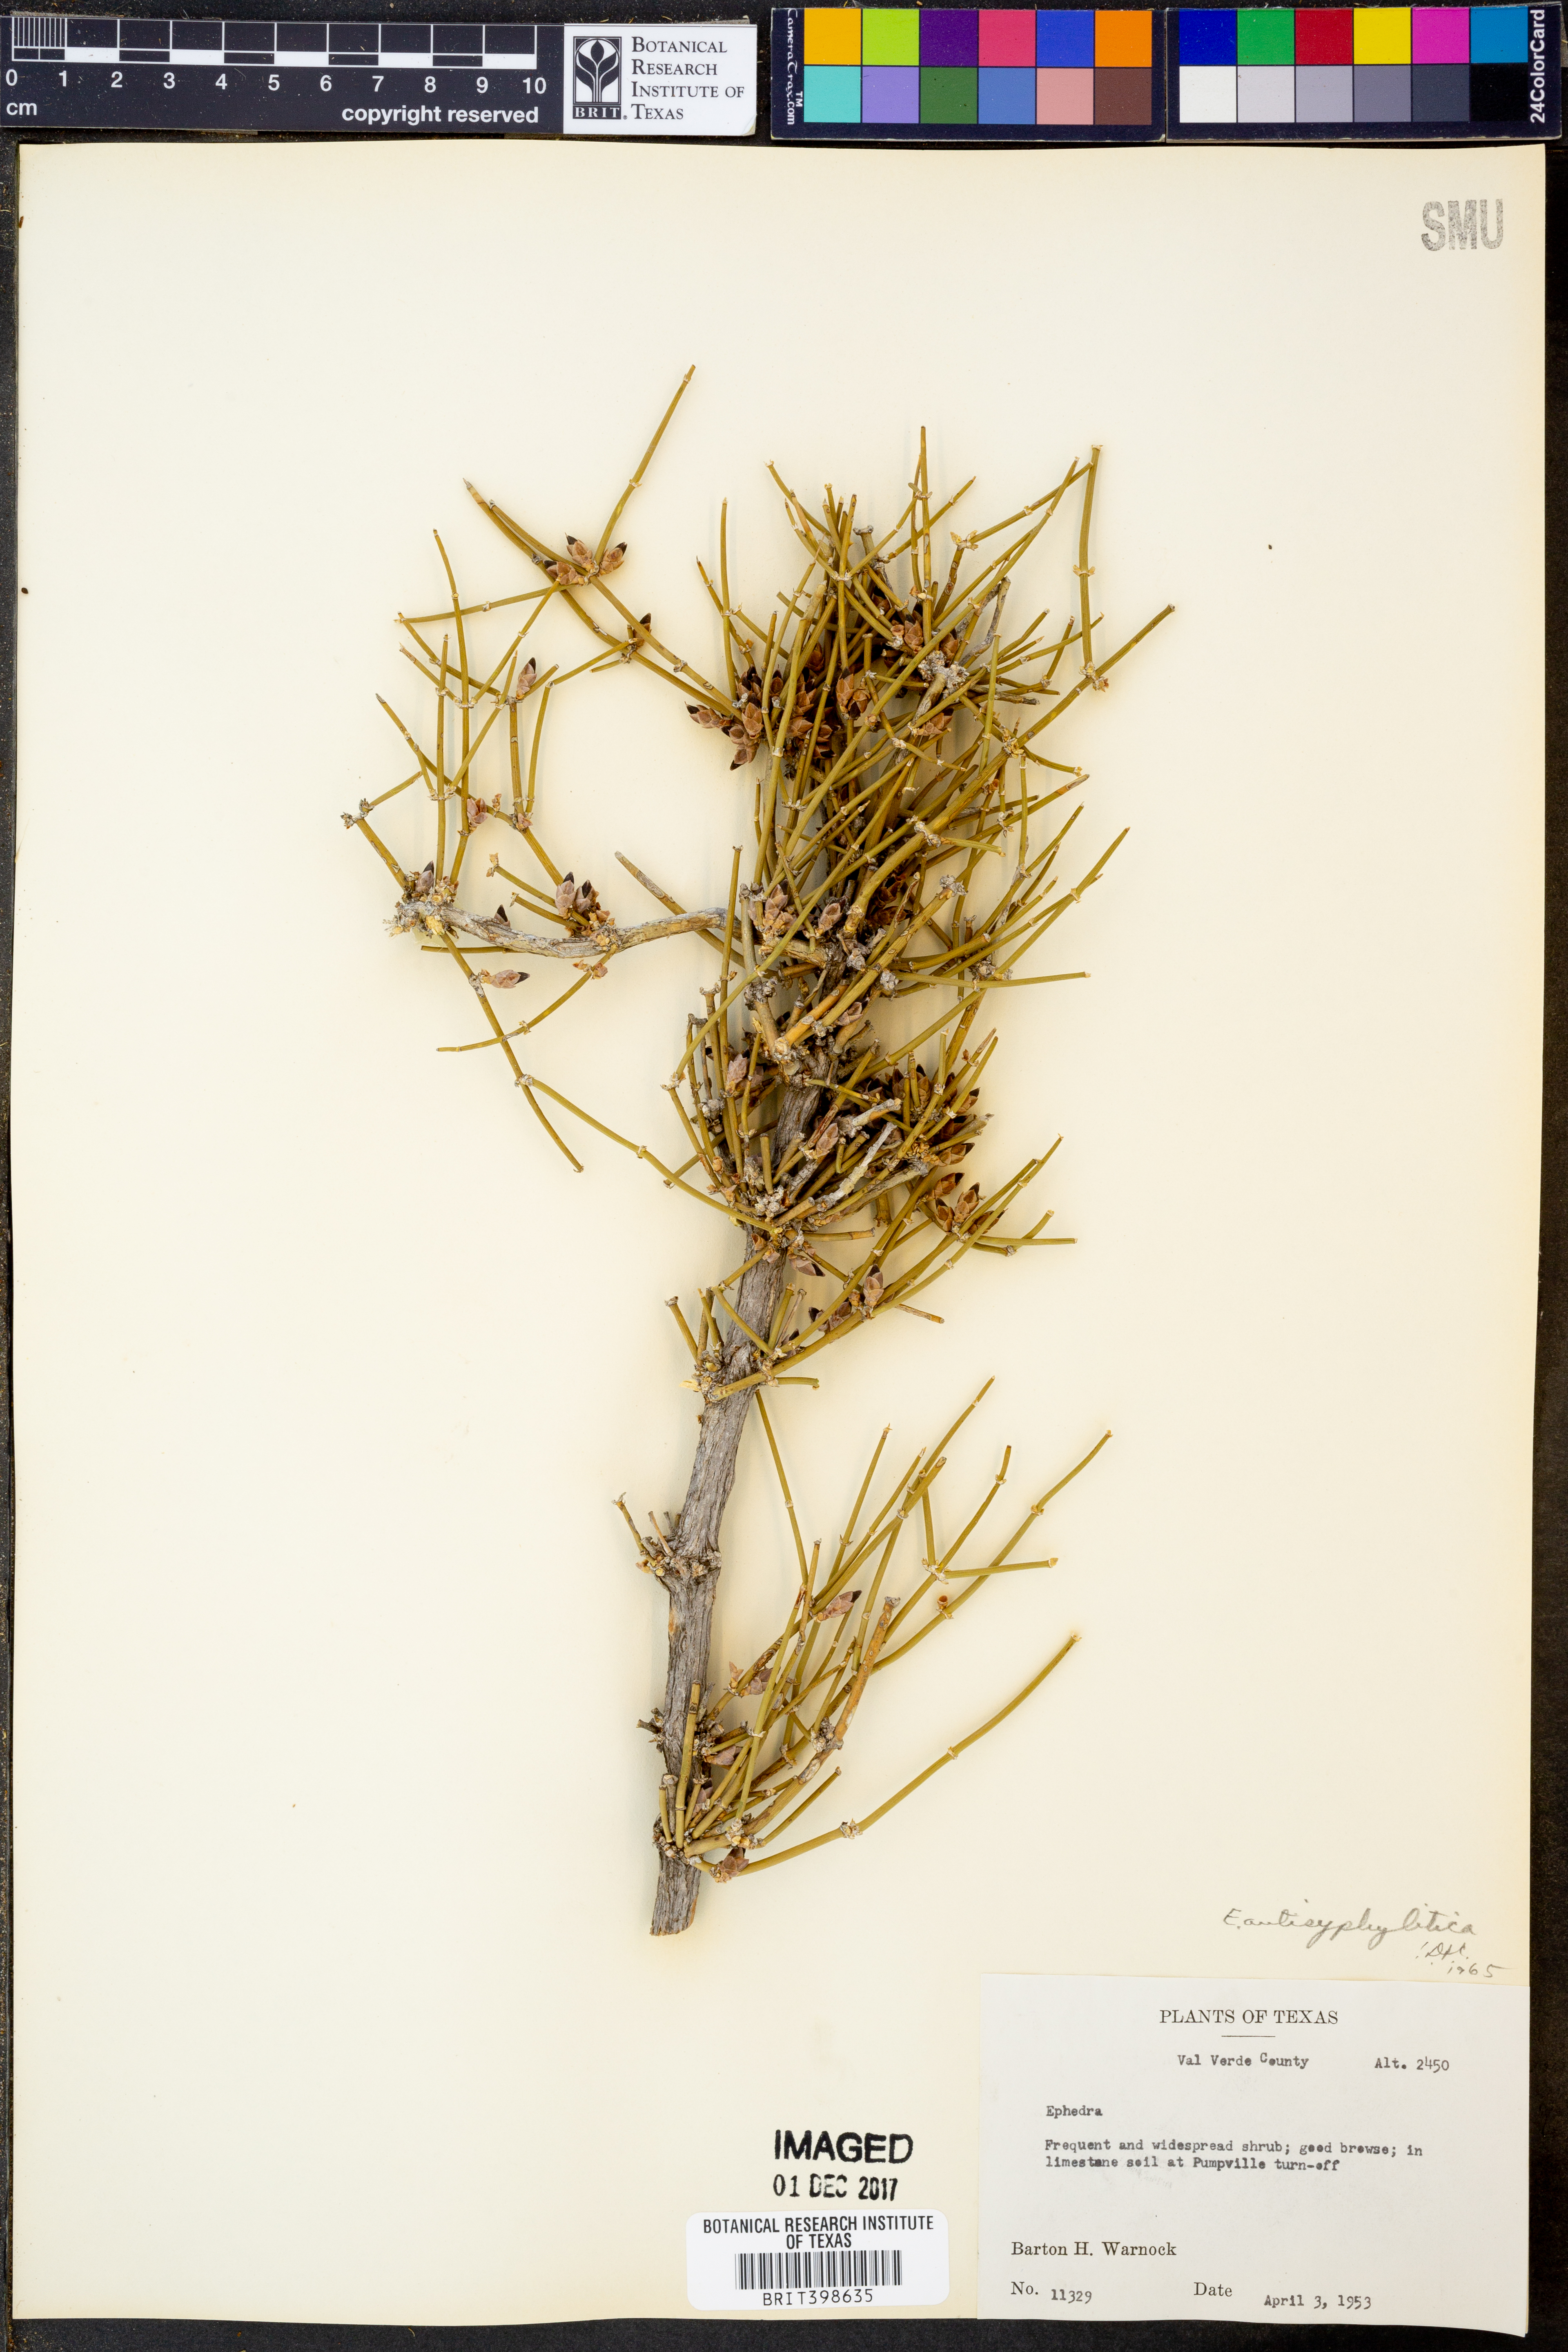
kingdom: Plantae
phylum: Tracheophyta
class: Gnetopsida
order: Ephedrales
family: Ephedraceae
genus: Ephedra
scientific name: Ephedra
